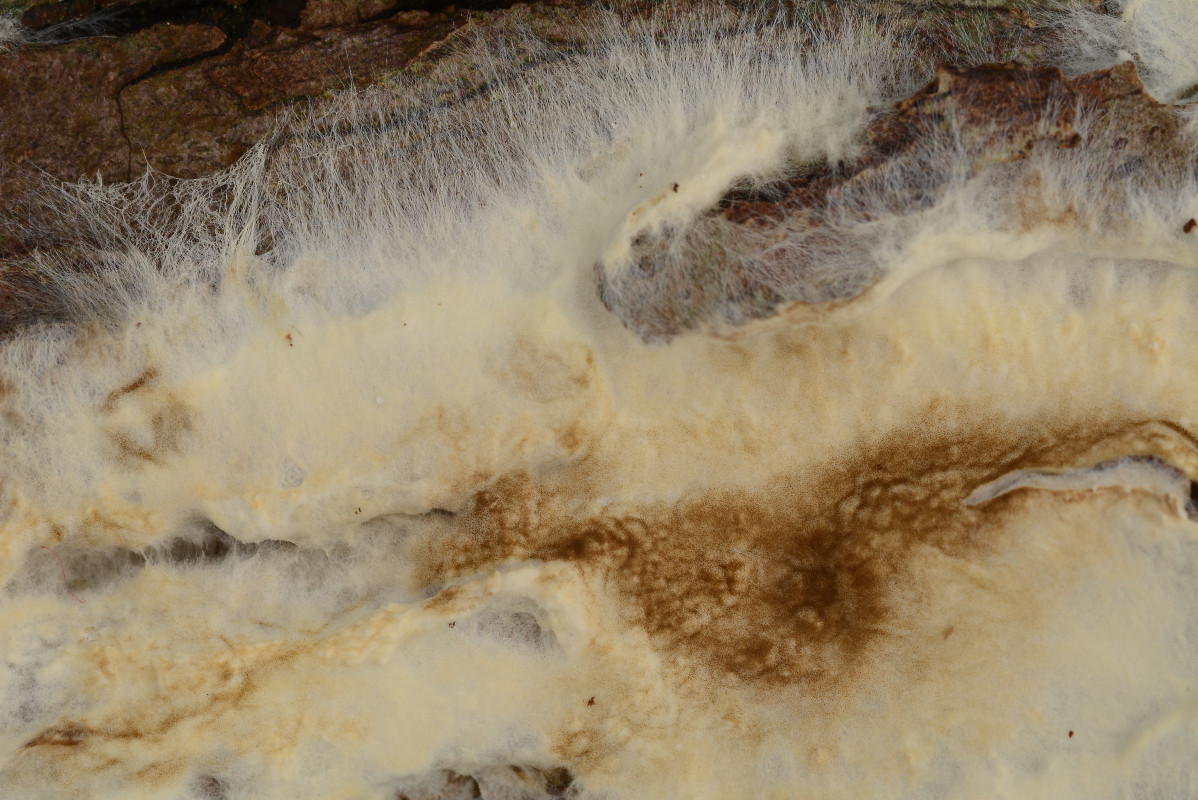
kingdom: Fungi
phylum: Basidiomycota
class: Agaricomycetes
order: Boletales
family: Coniophoraceae
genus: Coniophora
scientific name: Coniophora puteana
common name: gul tømmersvamp
